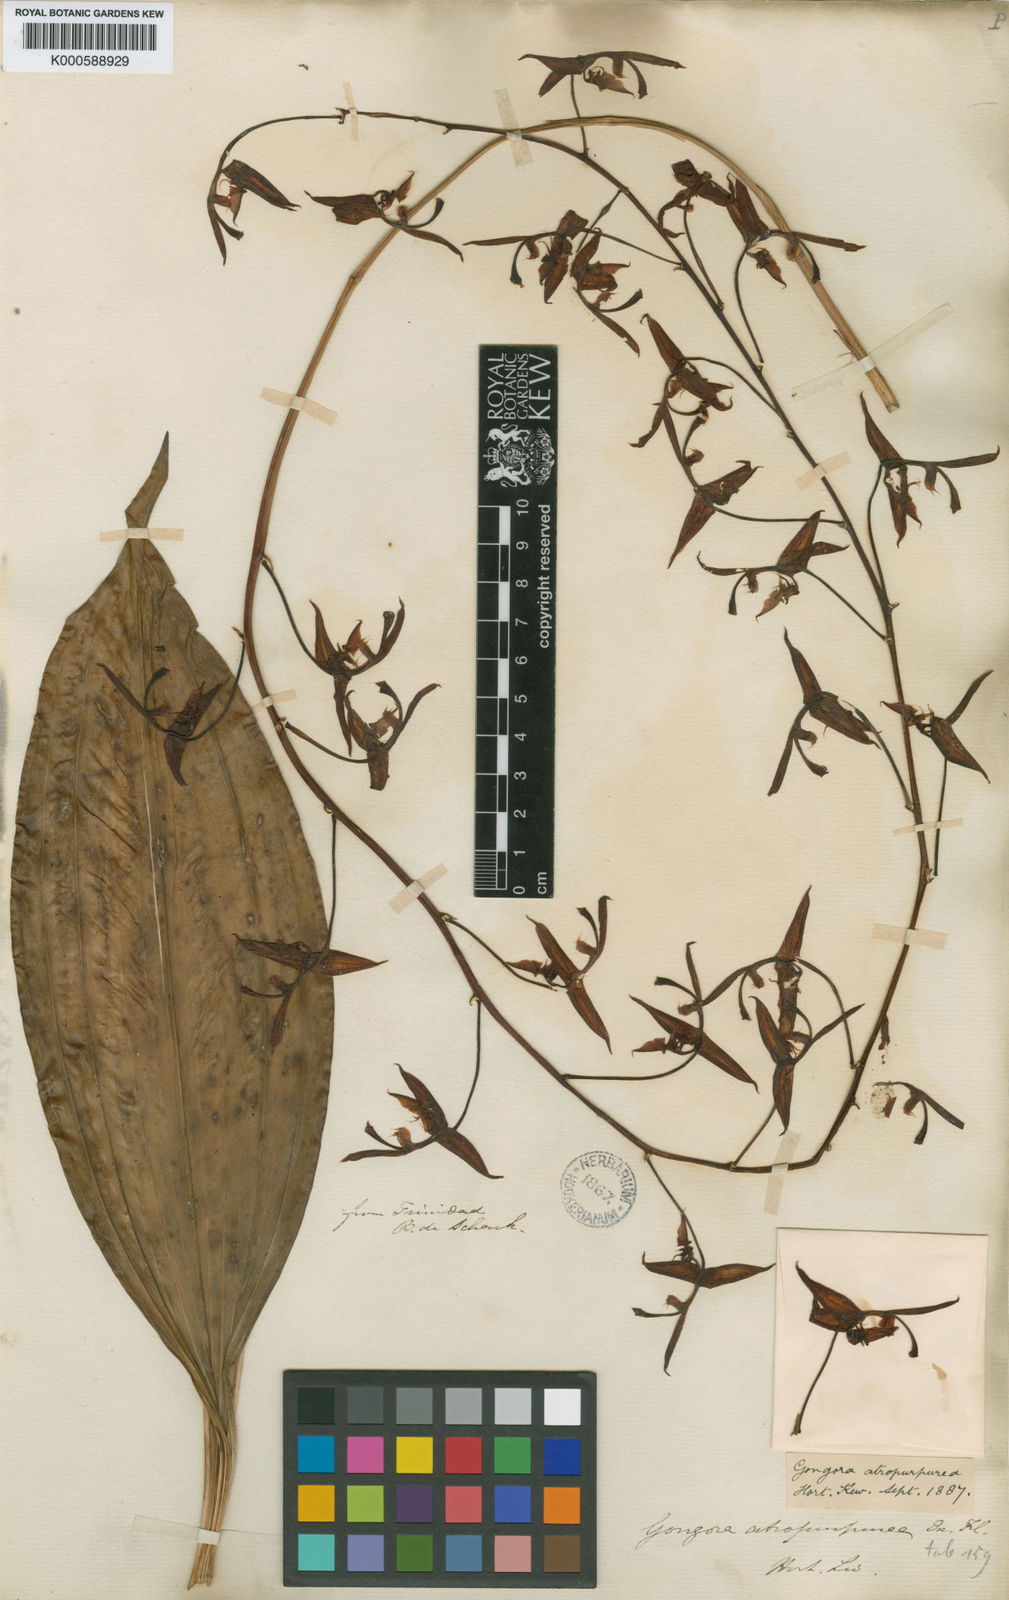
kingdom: Plantae
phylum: Tracheophyta
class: Liliopsida
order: Asparagales
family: Orchidaceae
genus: Gongora
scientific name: Gongora quinquenervis
